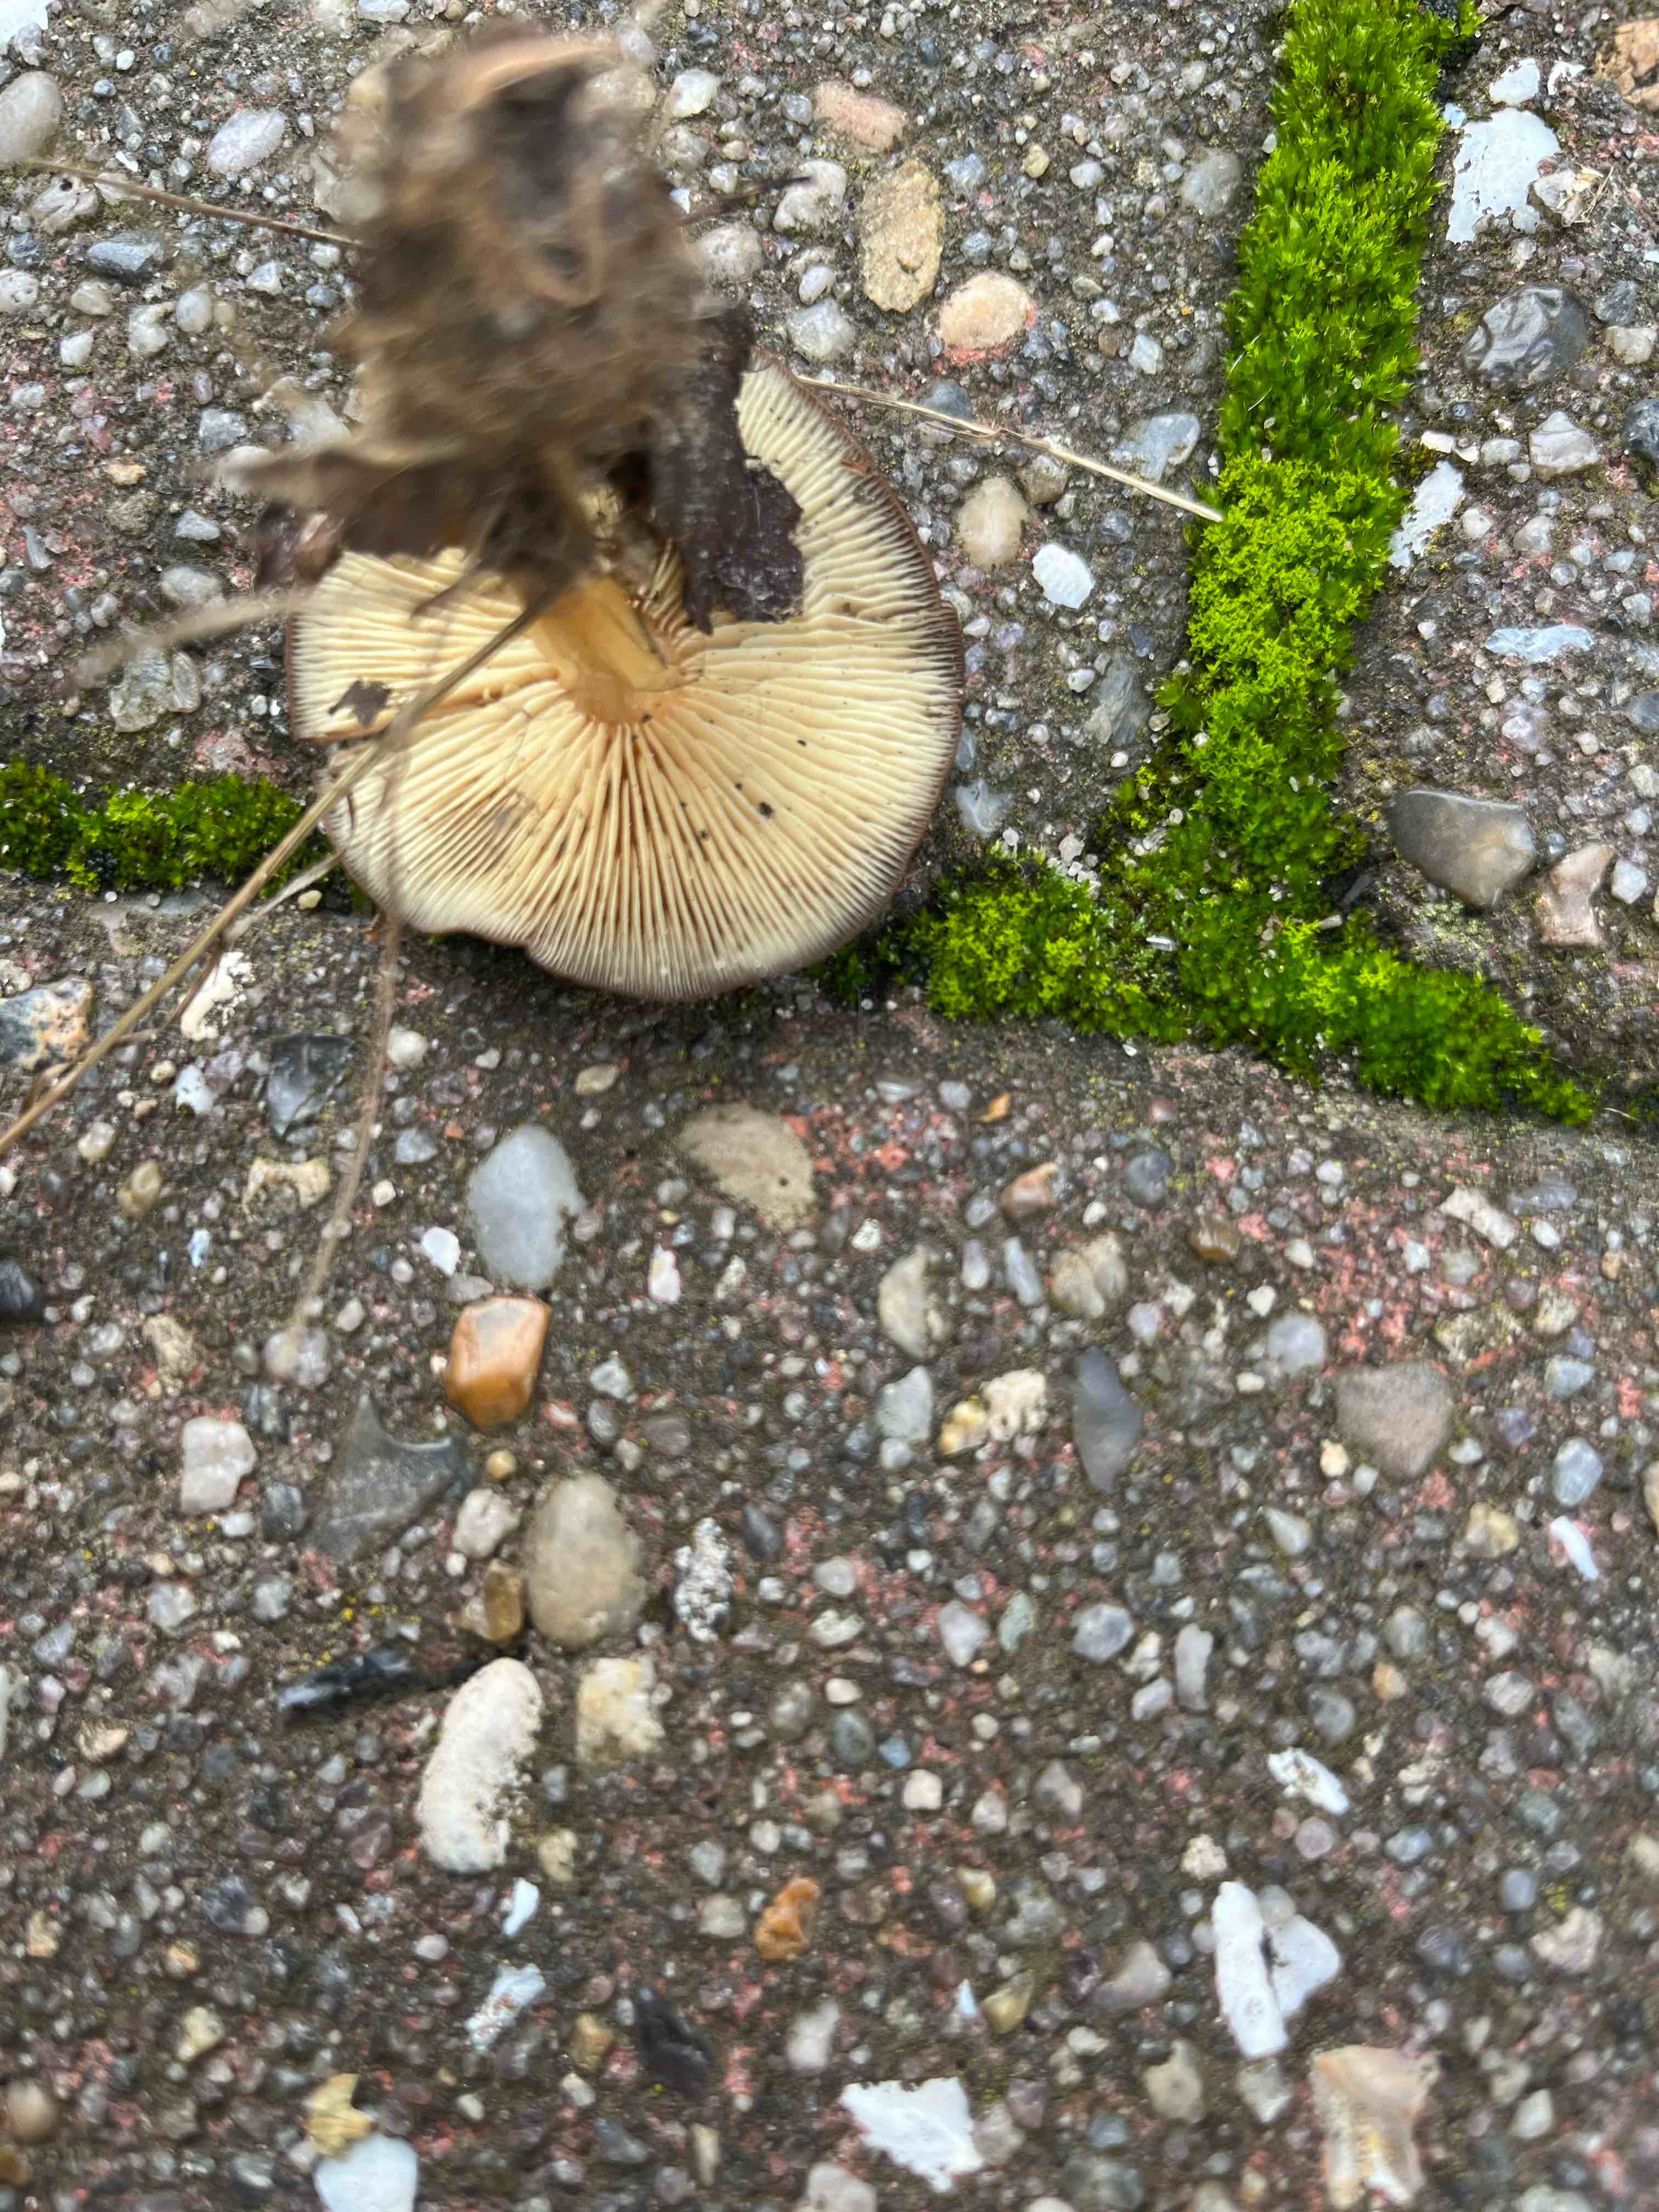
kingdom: Fungi
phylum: Basidiomycota
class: Agaricomycetes
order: Agaricales
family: Omphalotaceae
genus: Gymnopus
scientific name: Gymnopus ocior
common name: mørk fladhat
